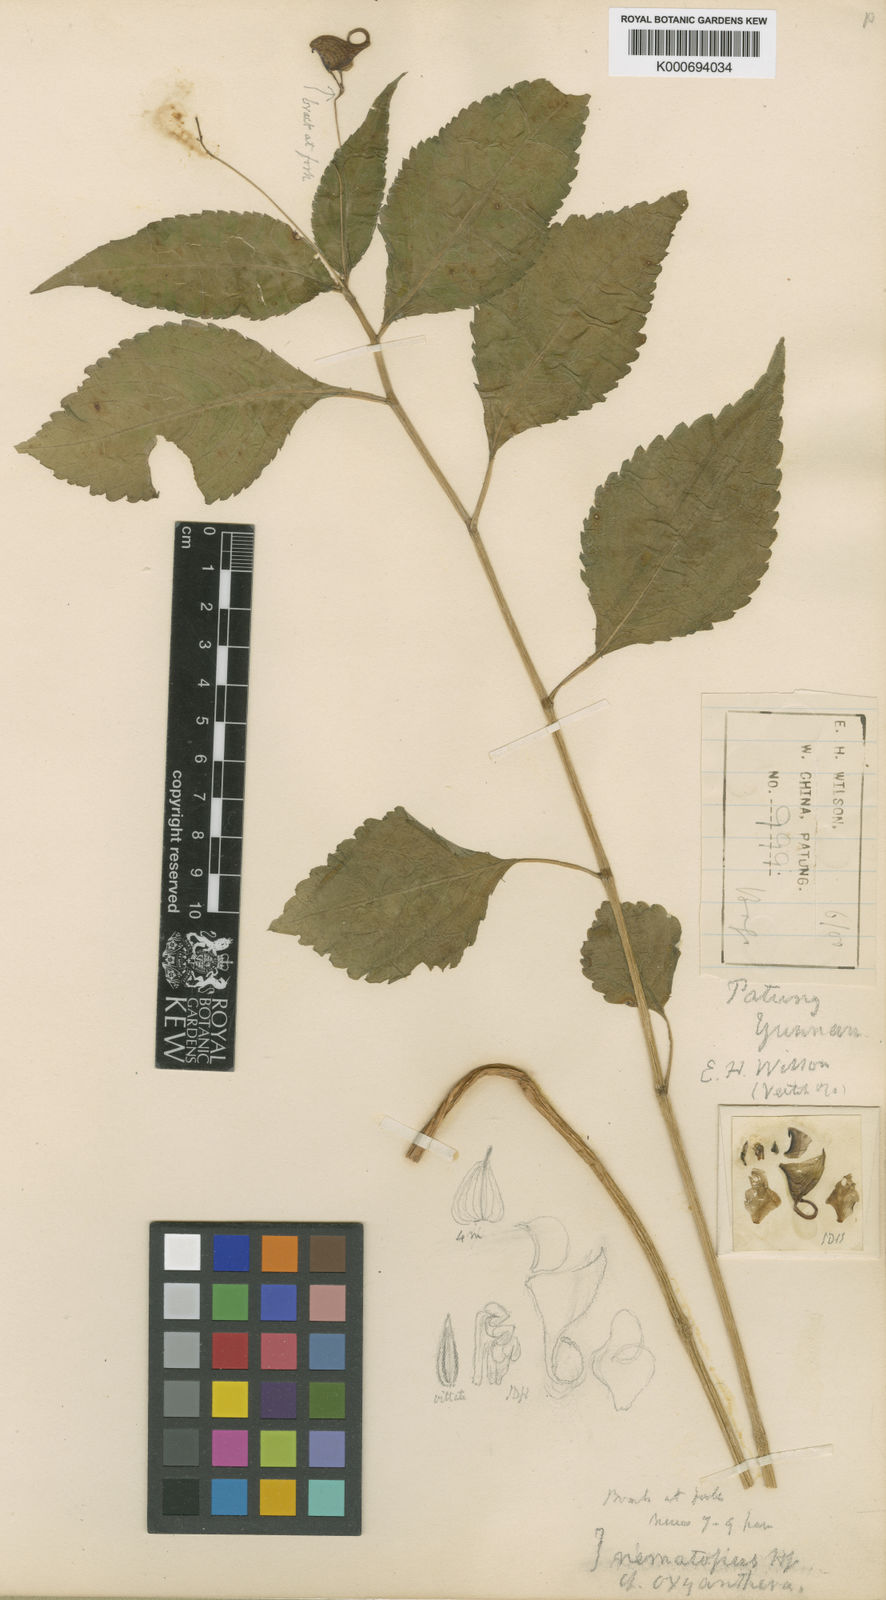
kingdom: Plantae
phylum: Tracheophyta
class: Magnoliopsida
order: Ericales
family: Balsaminaceae
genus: Impatiens
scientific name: Impatiens
